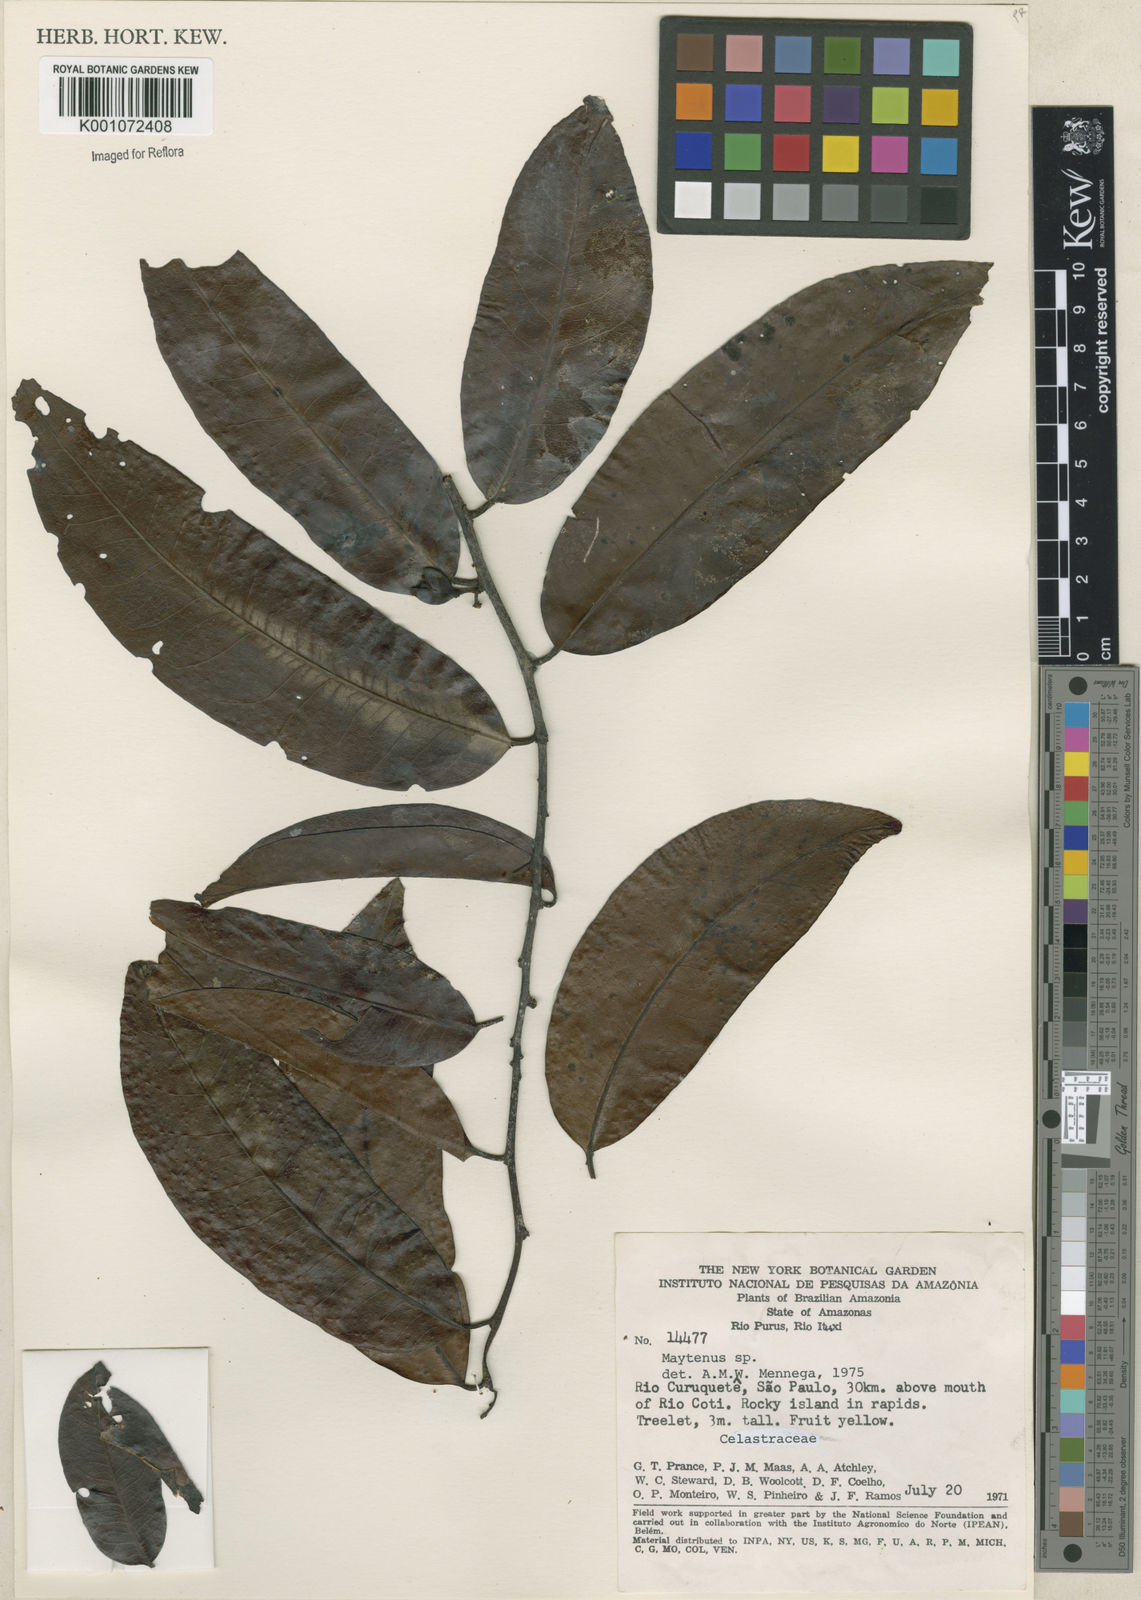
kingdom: Plantae
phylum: Tracheophyta
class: Magnoliopsida
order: Celastrales
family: Celastraceae
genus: Maytenus
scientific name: Maytenus
